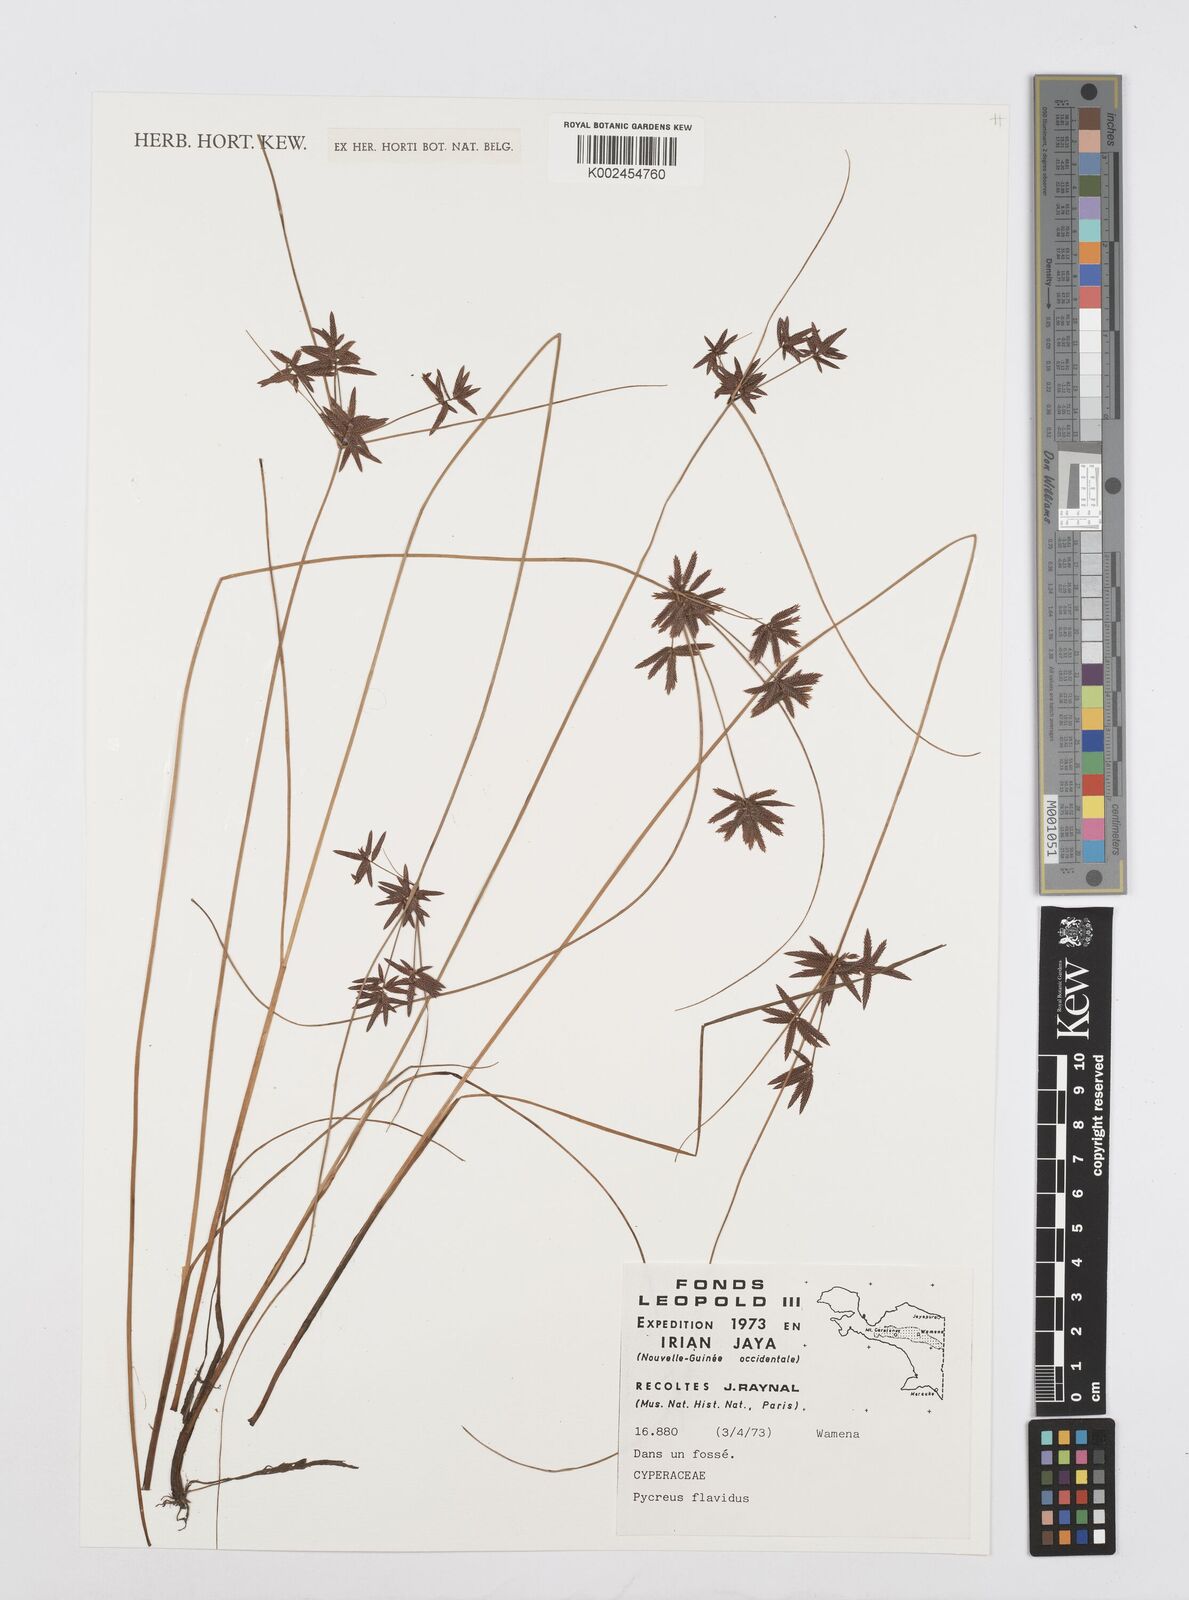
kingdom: Plantae
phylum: Tracheophyta
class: Liliopsida
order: Poales
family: Cyperaceae
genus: Cyperus
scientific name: Cyperus
